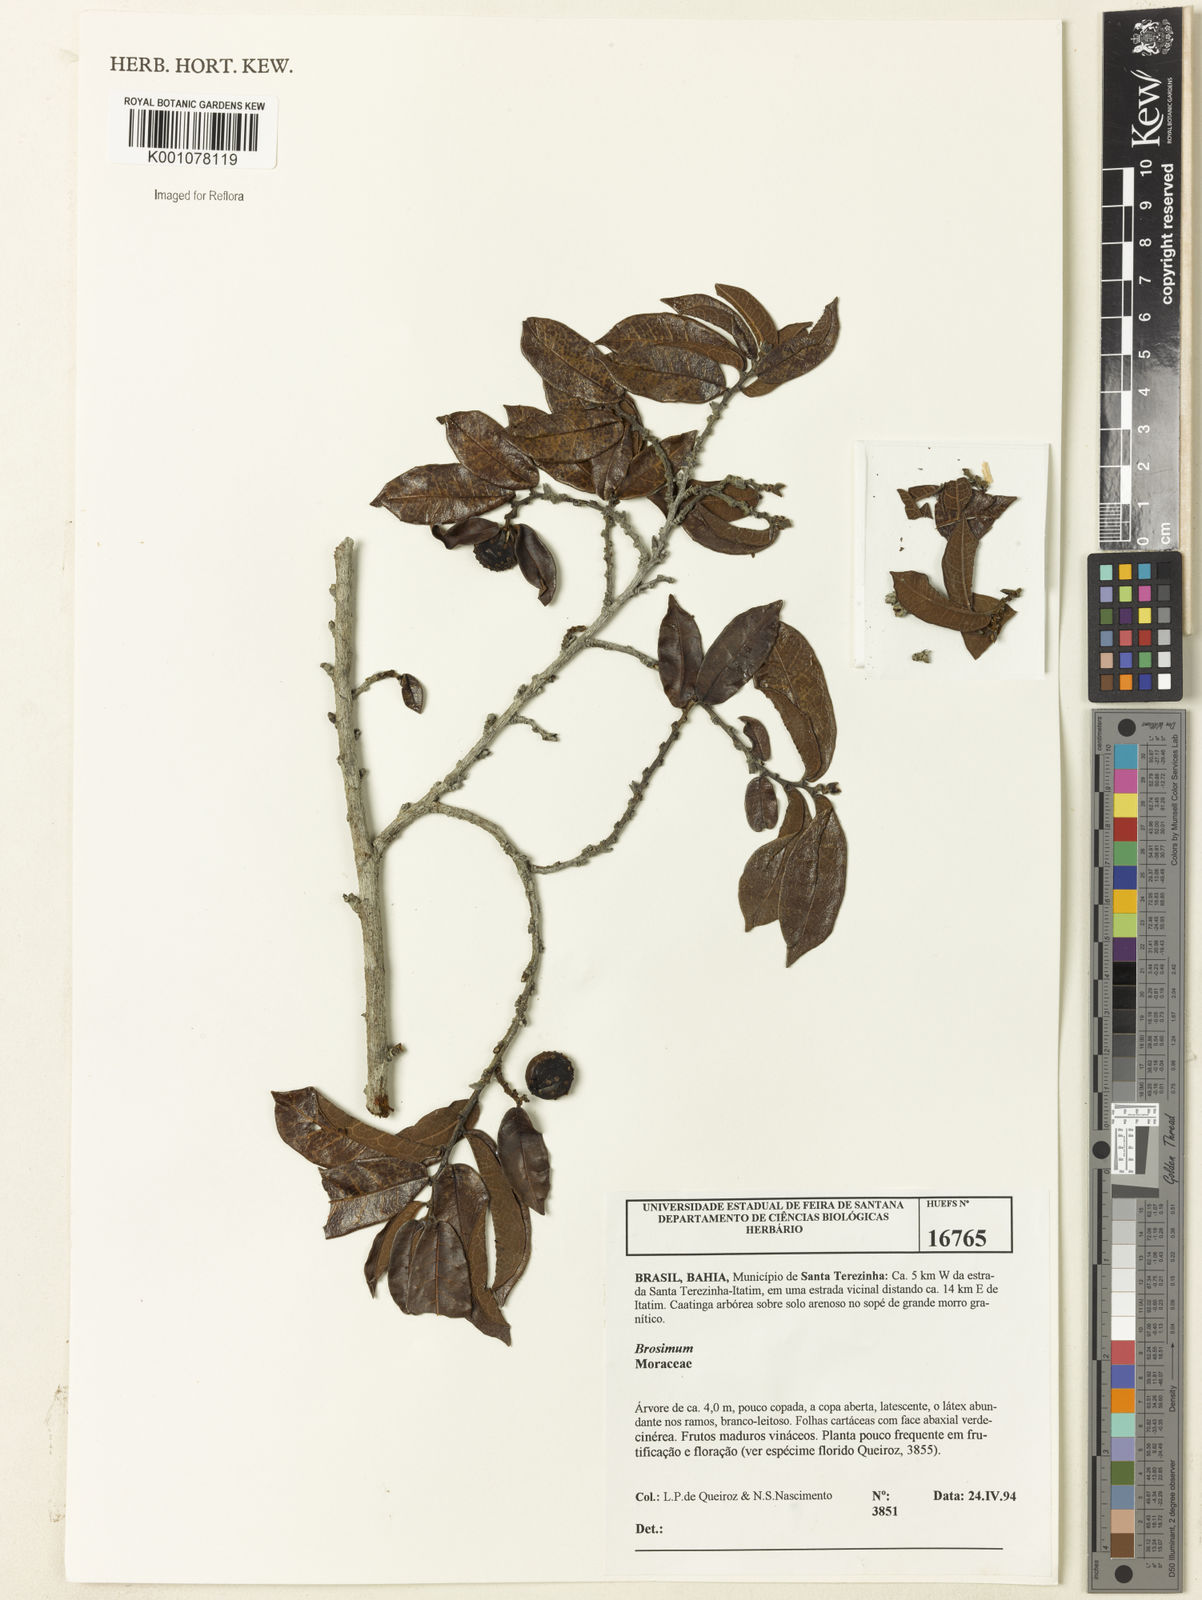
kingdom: Plantae
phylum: Tracheophyta
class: Magnoliopsida
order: Rosales
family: Moraceae
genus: Brosimum
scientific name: Brosimum
